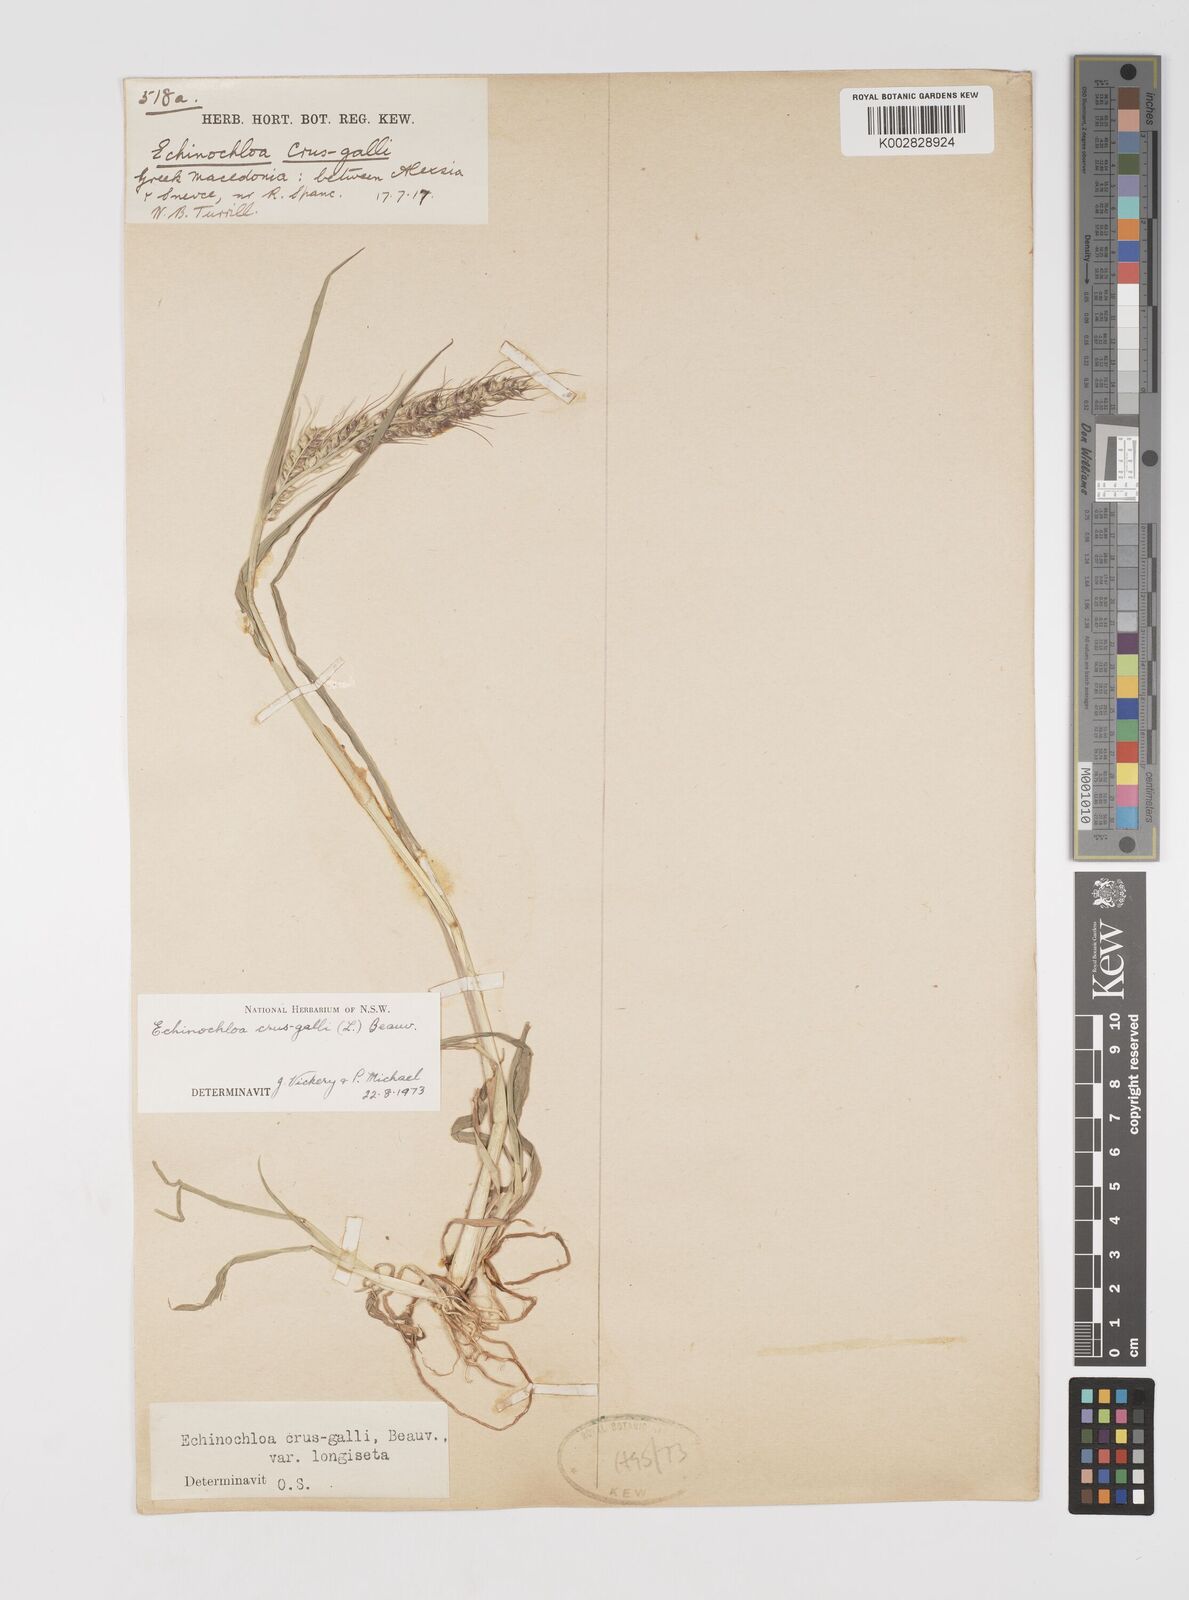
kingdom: Plantae
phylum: Tracheophyta
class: Liliopsida
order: Poales
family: Poaceae
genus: Echinochloa
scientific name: Echinochloa crus-galli
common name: Cockspur
